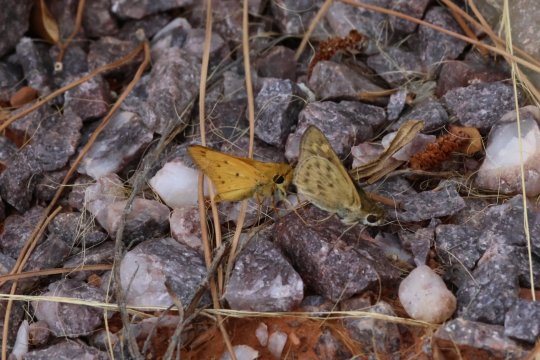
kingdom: Animalia
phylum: Arthropoda
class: Insecta
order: Lepidoptera
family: Hesperiidae
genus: Hylephila
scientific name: Hylephila phyleus
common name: Fiery Skipper
